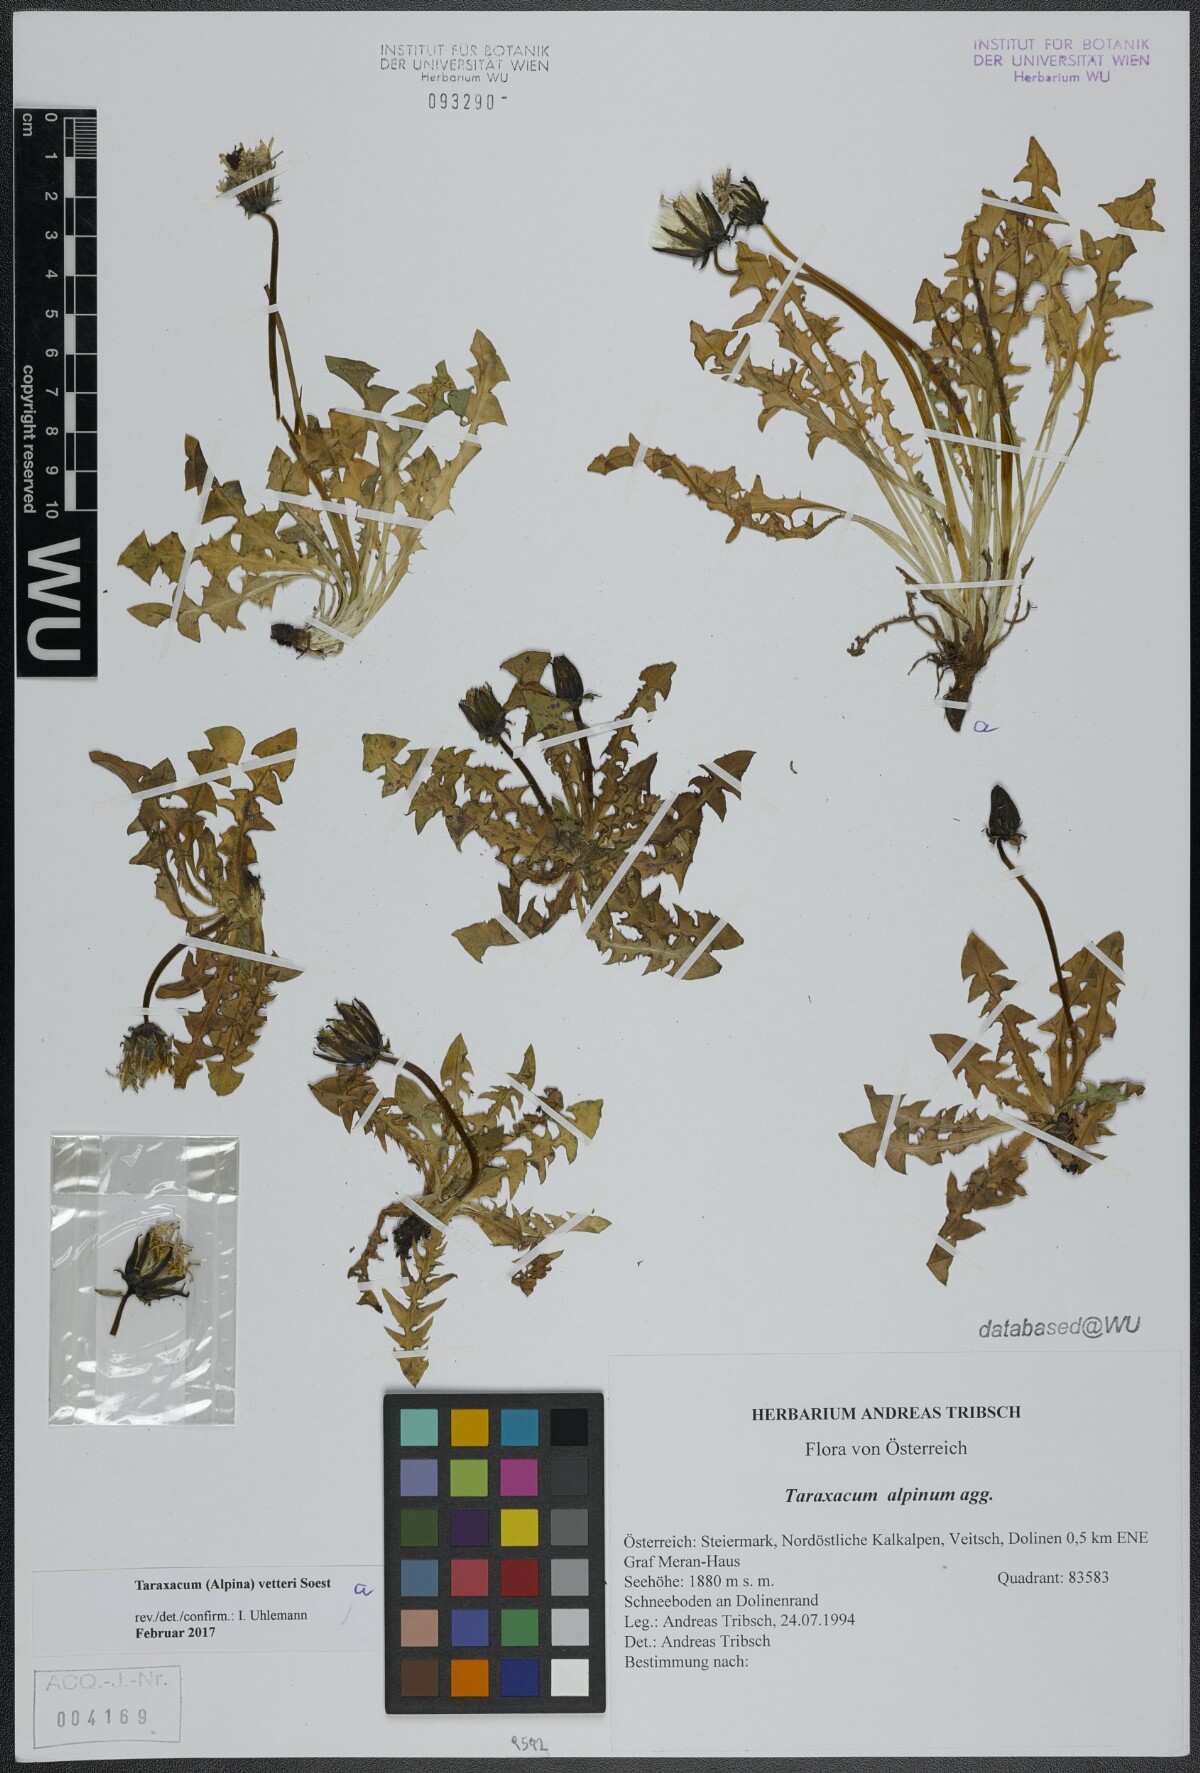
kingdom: Plantae
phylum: Tracheophyta
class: Magnoliopsida
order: Asterales
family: Asteraceae
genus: Taraxacum
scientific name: Taraxacum vetteri
